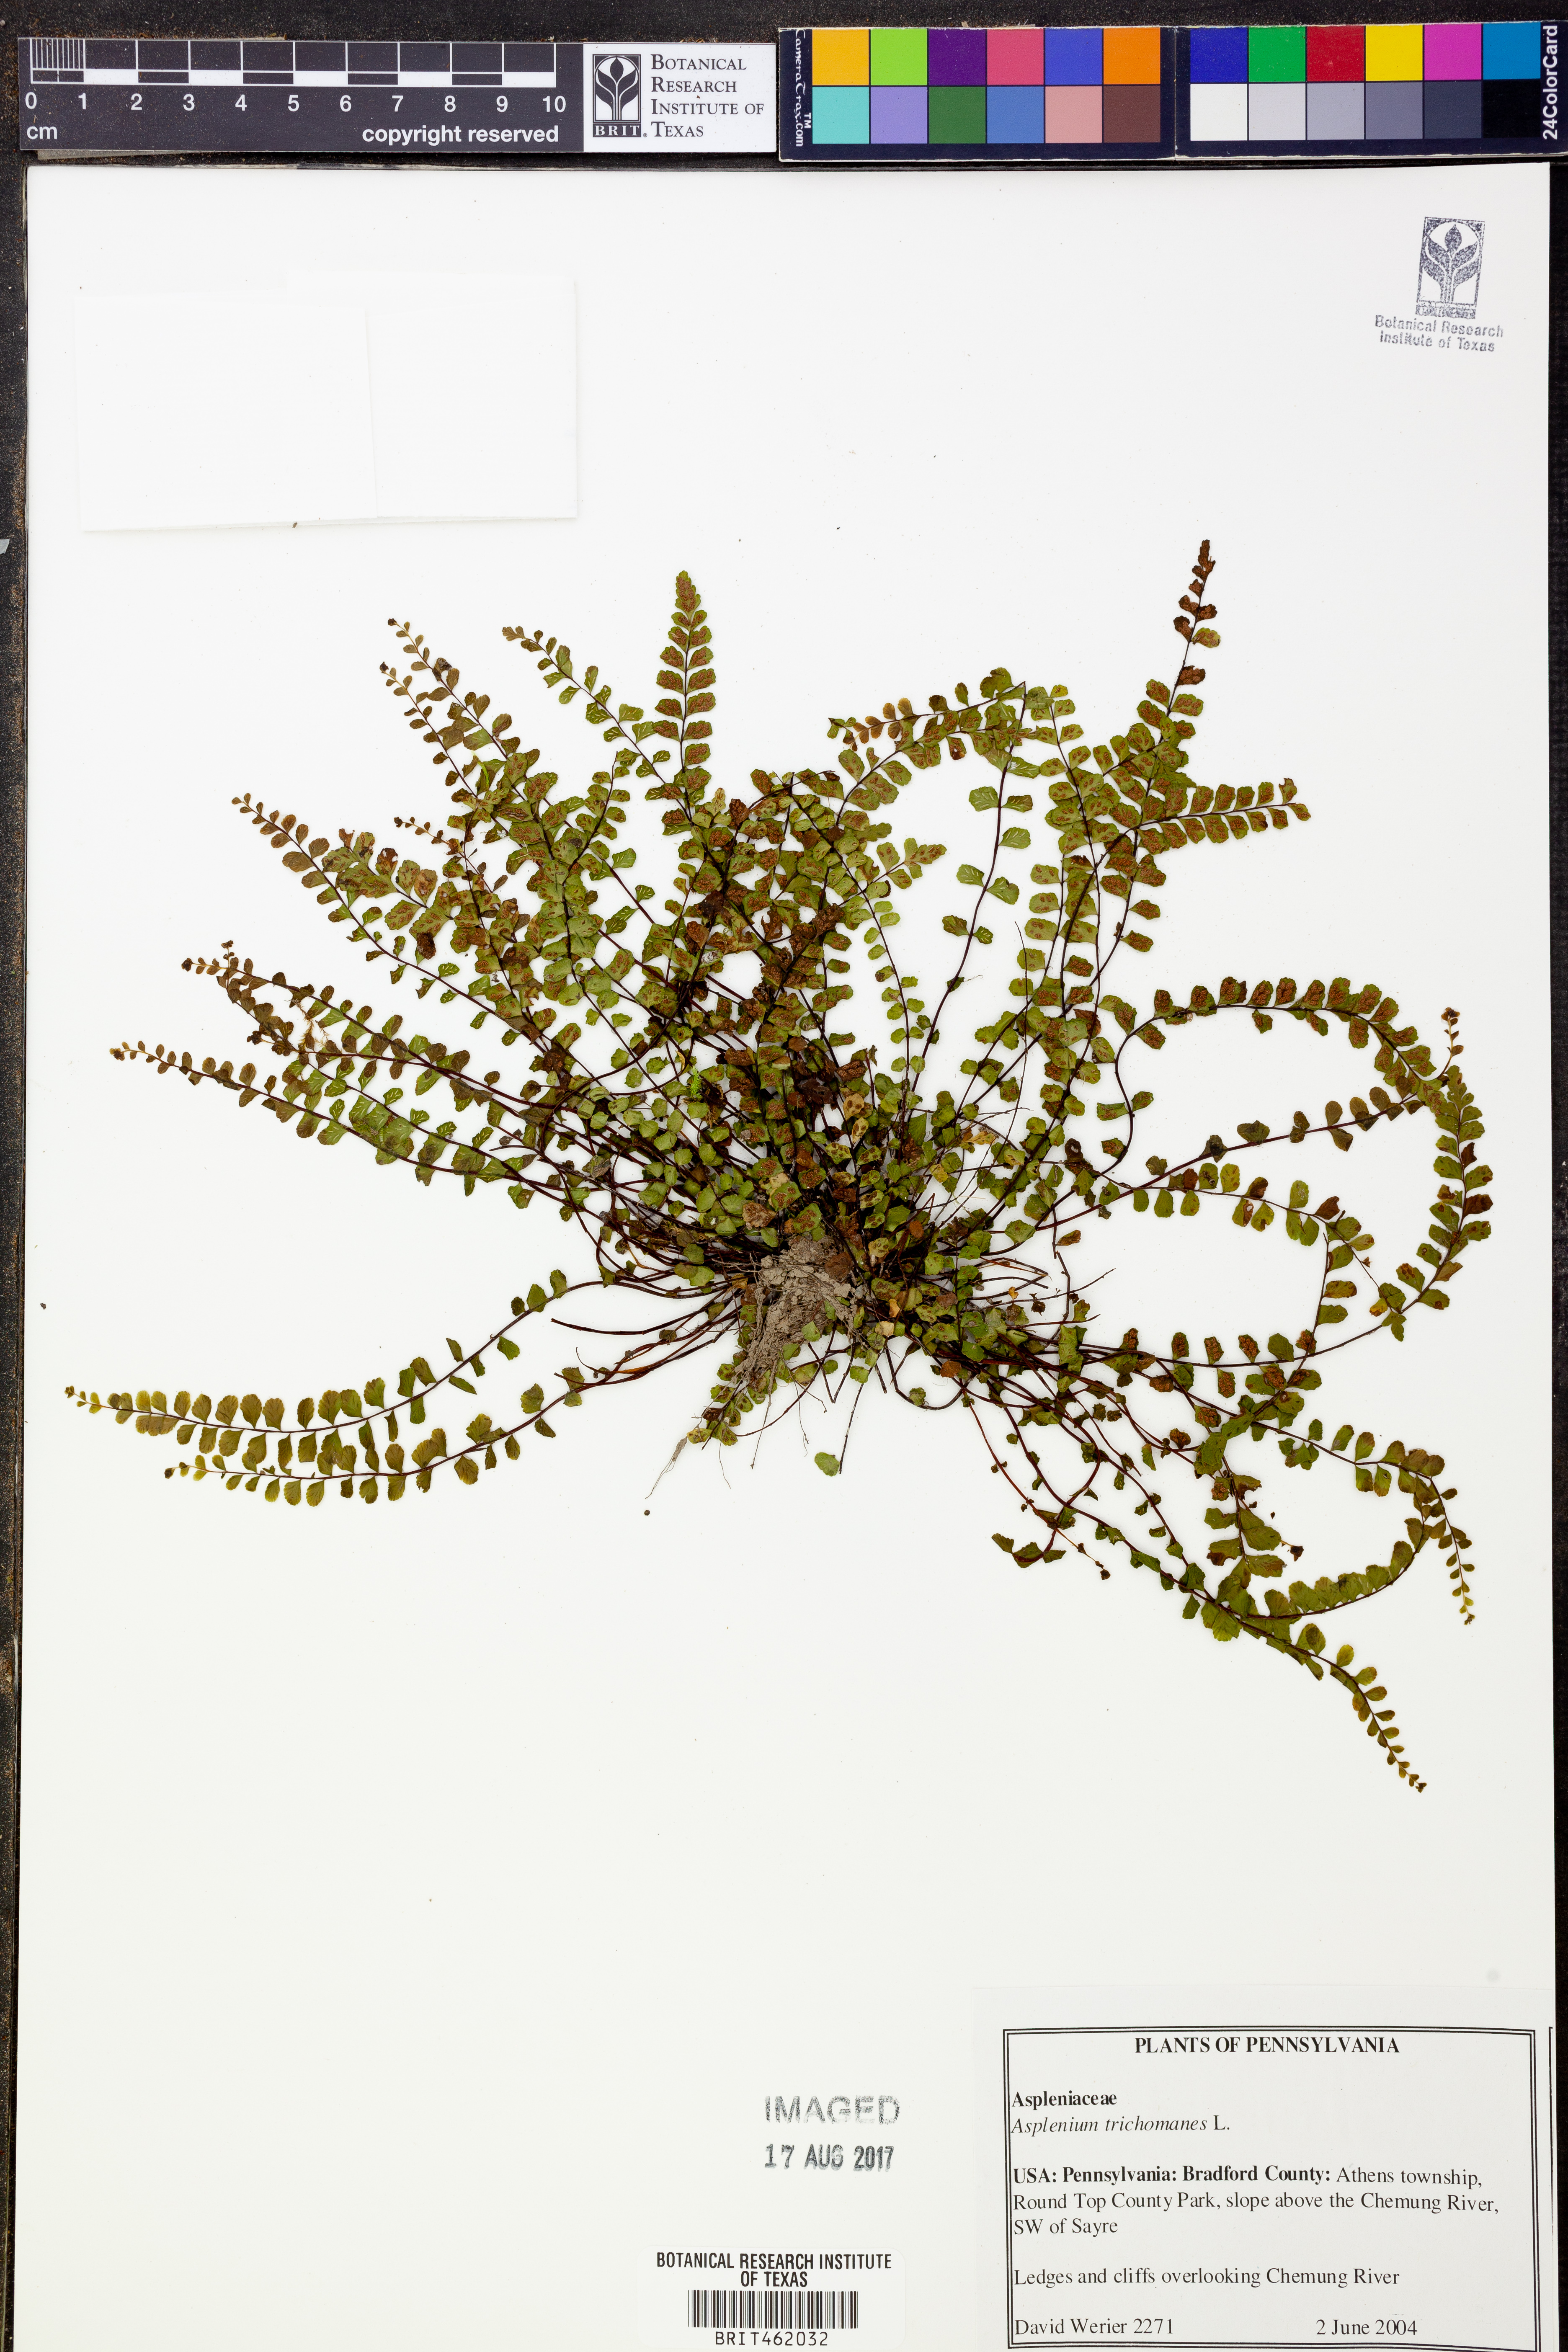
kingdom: Plantae
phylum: Tracheophyta
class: Polypodiopsida
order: Polypodiales
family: Aspleniaceae
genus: Asplenium
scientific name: Asplenium trichomanes
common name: Maidenhair spleenwort
